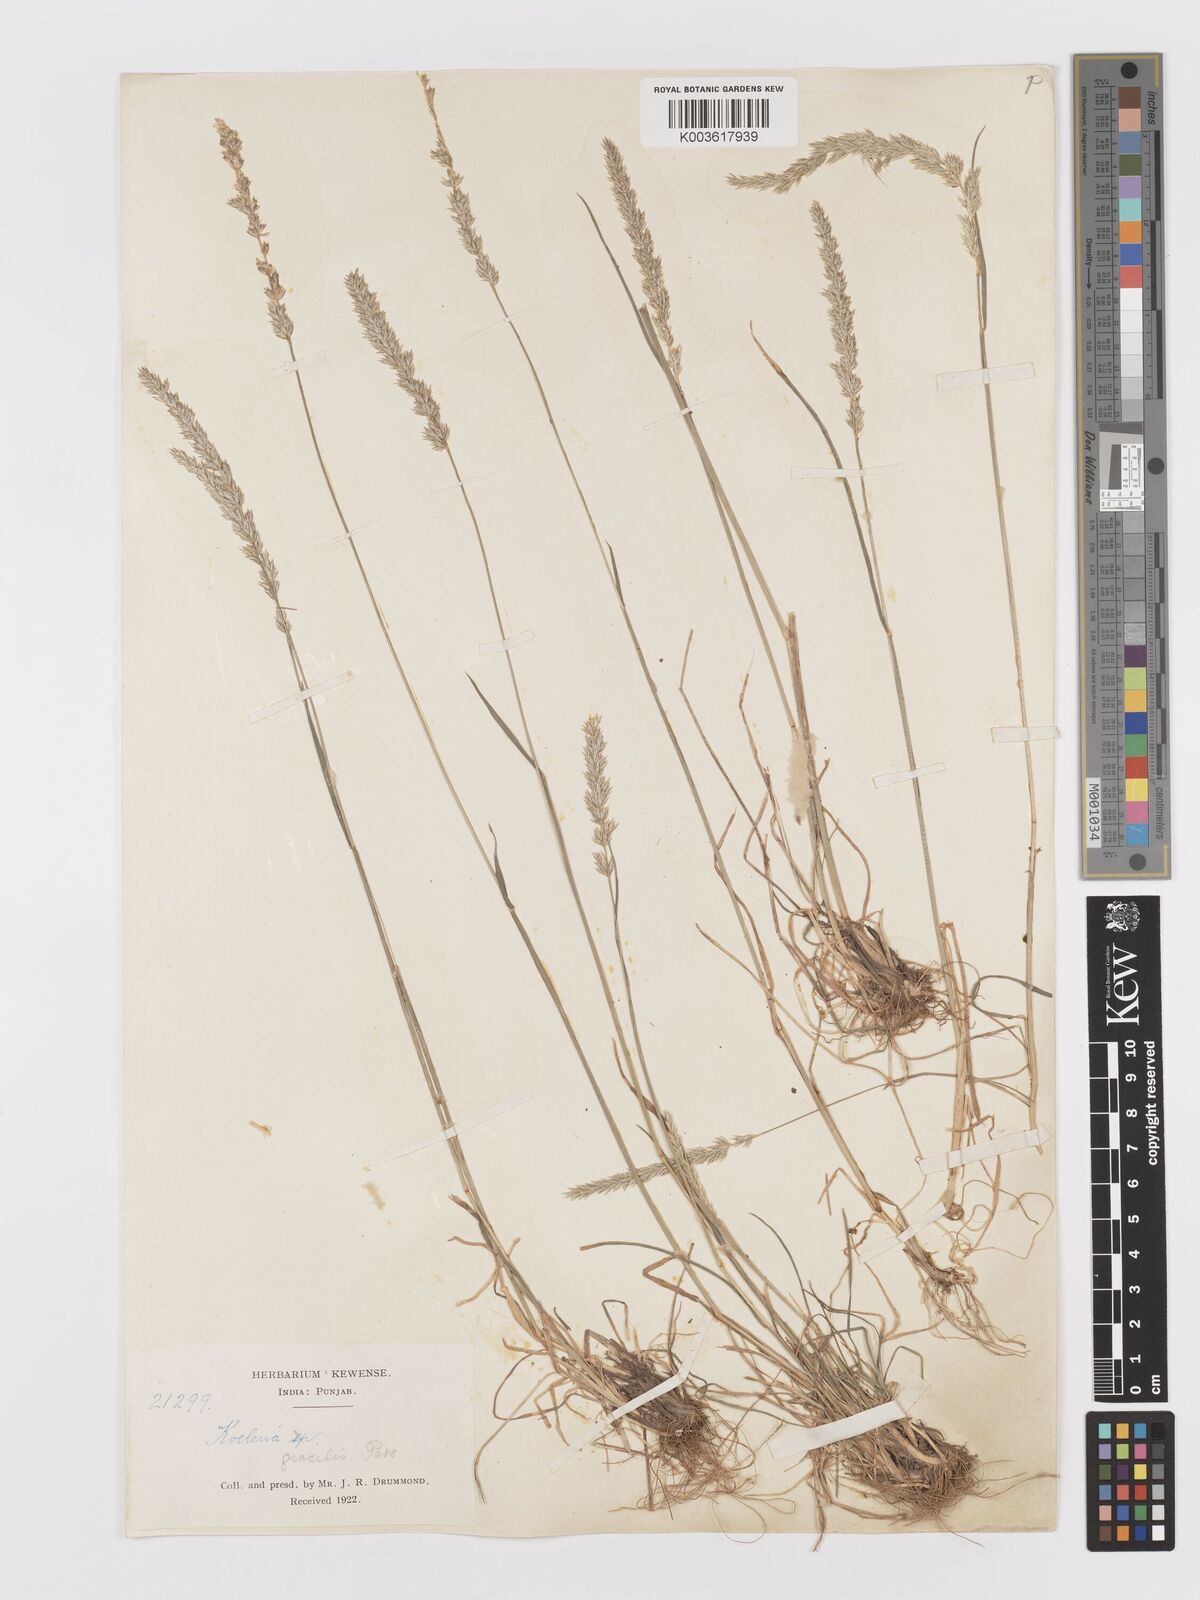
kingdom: Plantae
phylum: Tracheophyta
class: Liliopsida
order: Poales
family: Poaceae
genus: Koeleria
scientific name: Koeleria
